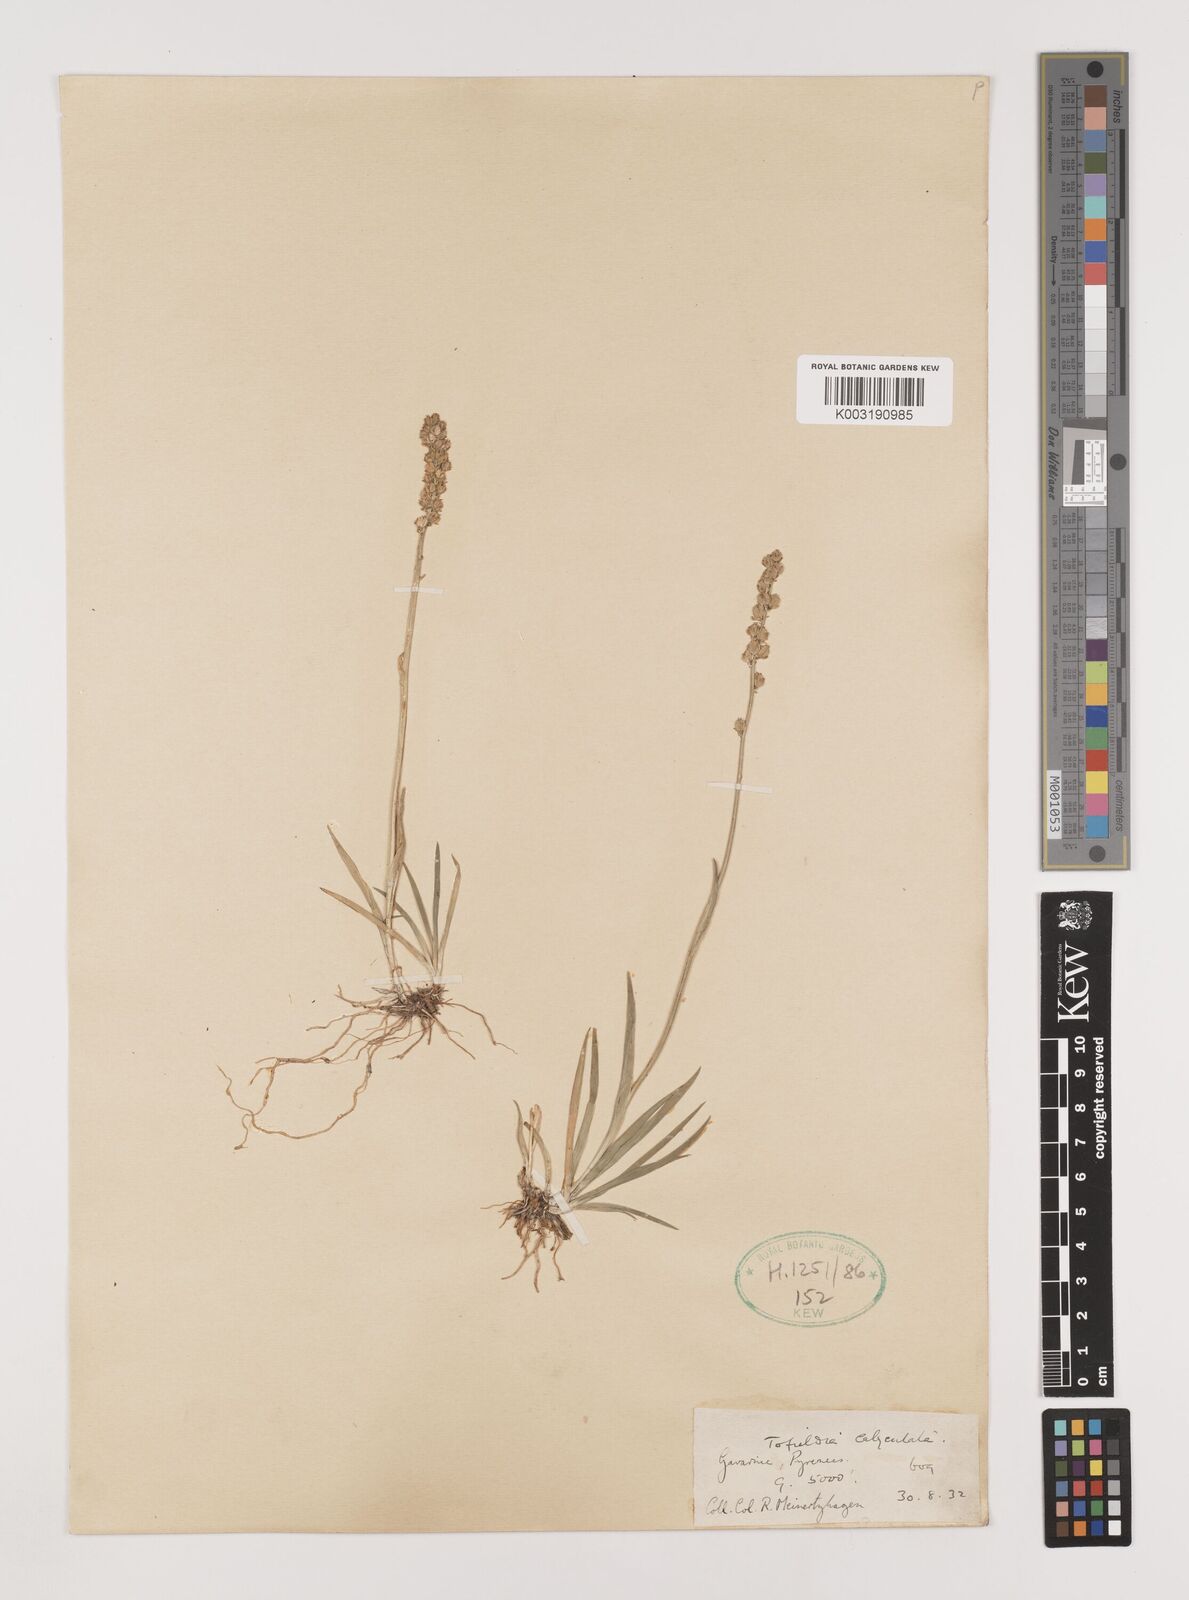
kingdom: Plantae
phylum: Tracheophyta
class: Liliopsida
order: Alismatales
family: Tofieldiaceae
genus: Tofieldia
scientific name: Tofieldia calyculata
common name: German-asphodel
